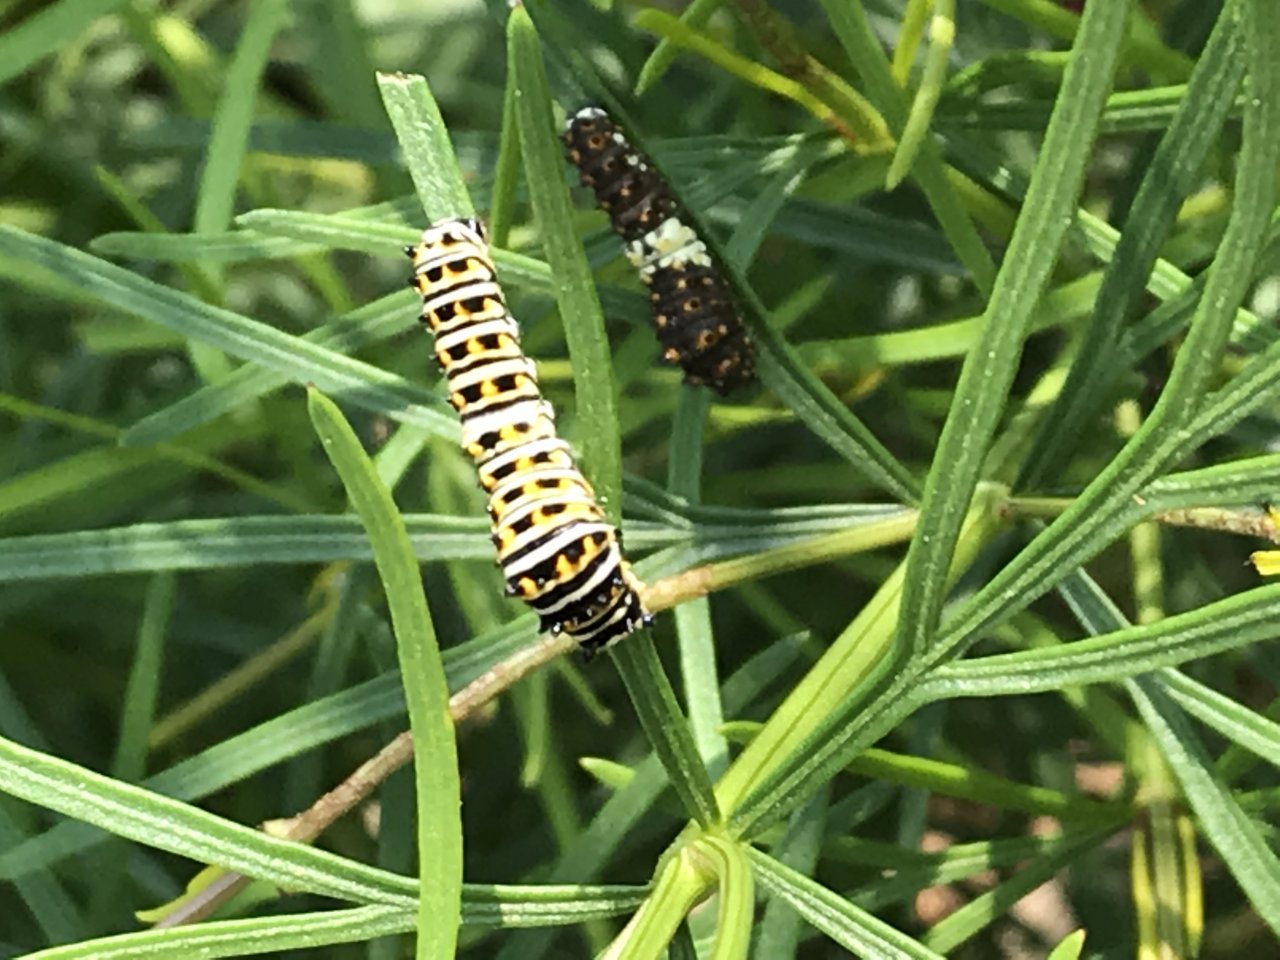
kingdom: Animalia
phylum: Arthropoda
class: Insecta
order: Lepidoptera
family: Papilionidae
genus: Papilio
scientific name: Papilio polyxenes
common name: Black Swallowtail
